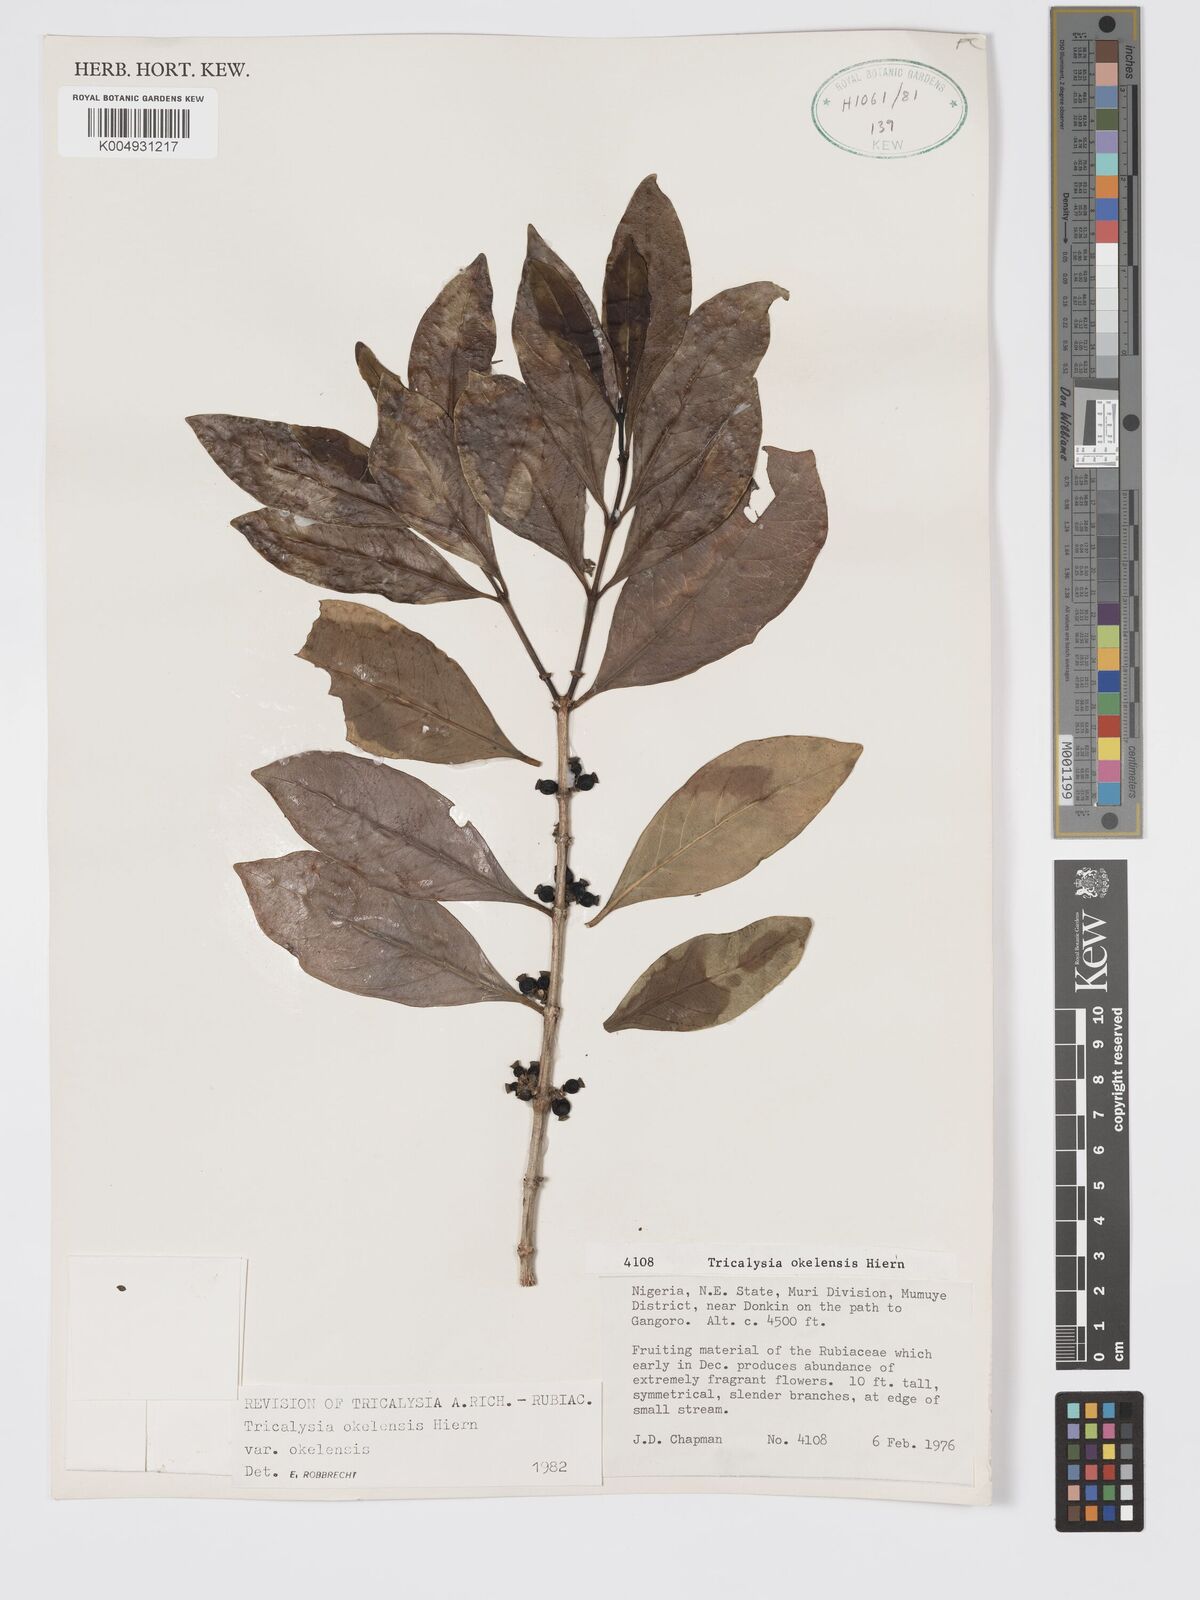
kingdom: Plantae
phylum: Tracheophyta
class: Magnoliopsida
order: Gentianales
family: Rubiaceae
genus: Tricalysia
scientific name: Tricalysia okelensis
